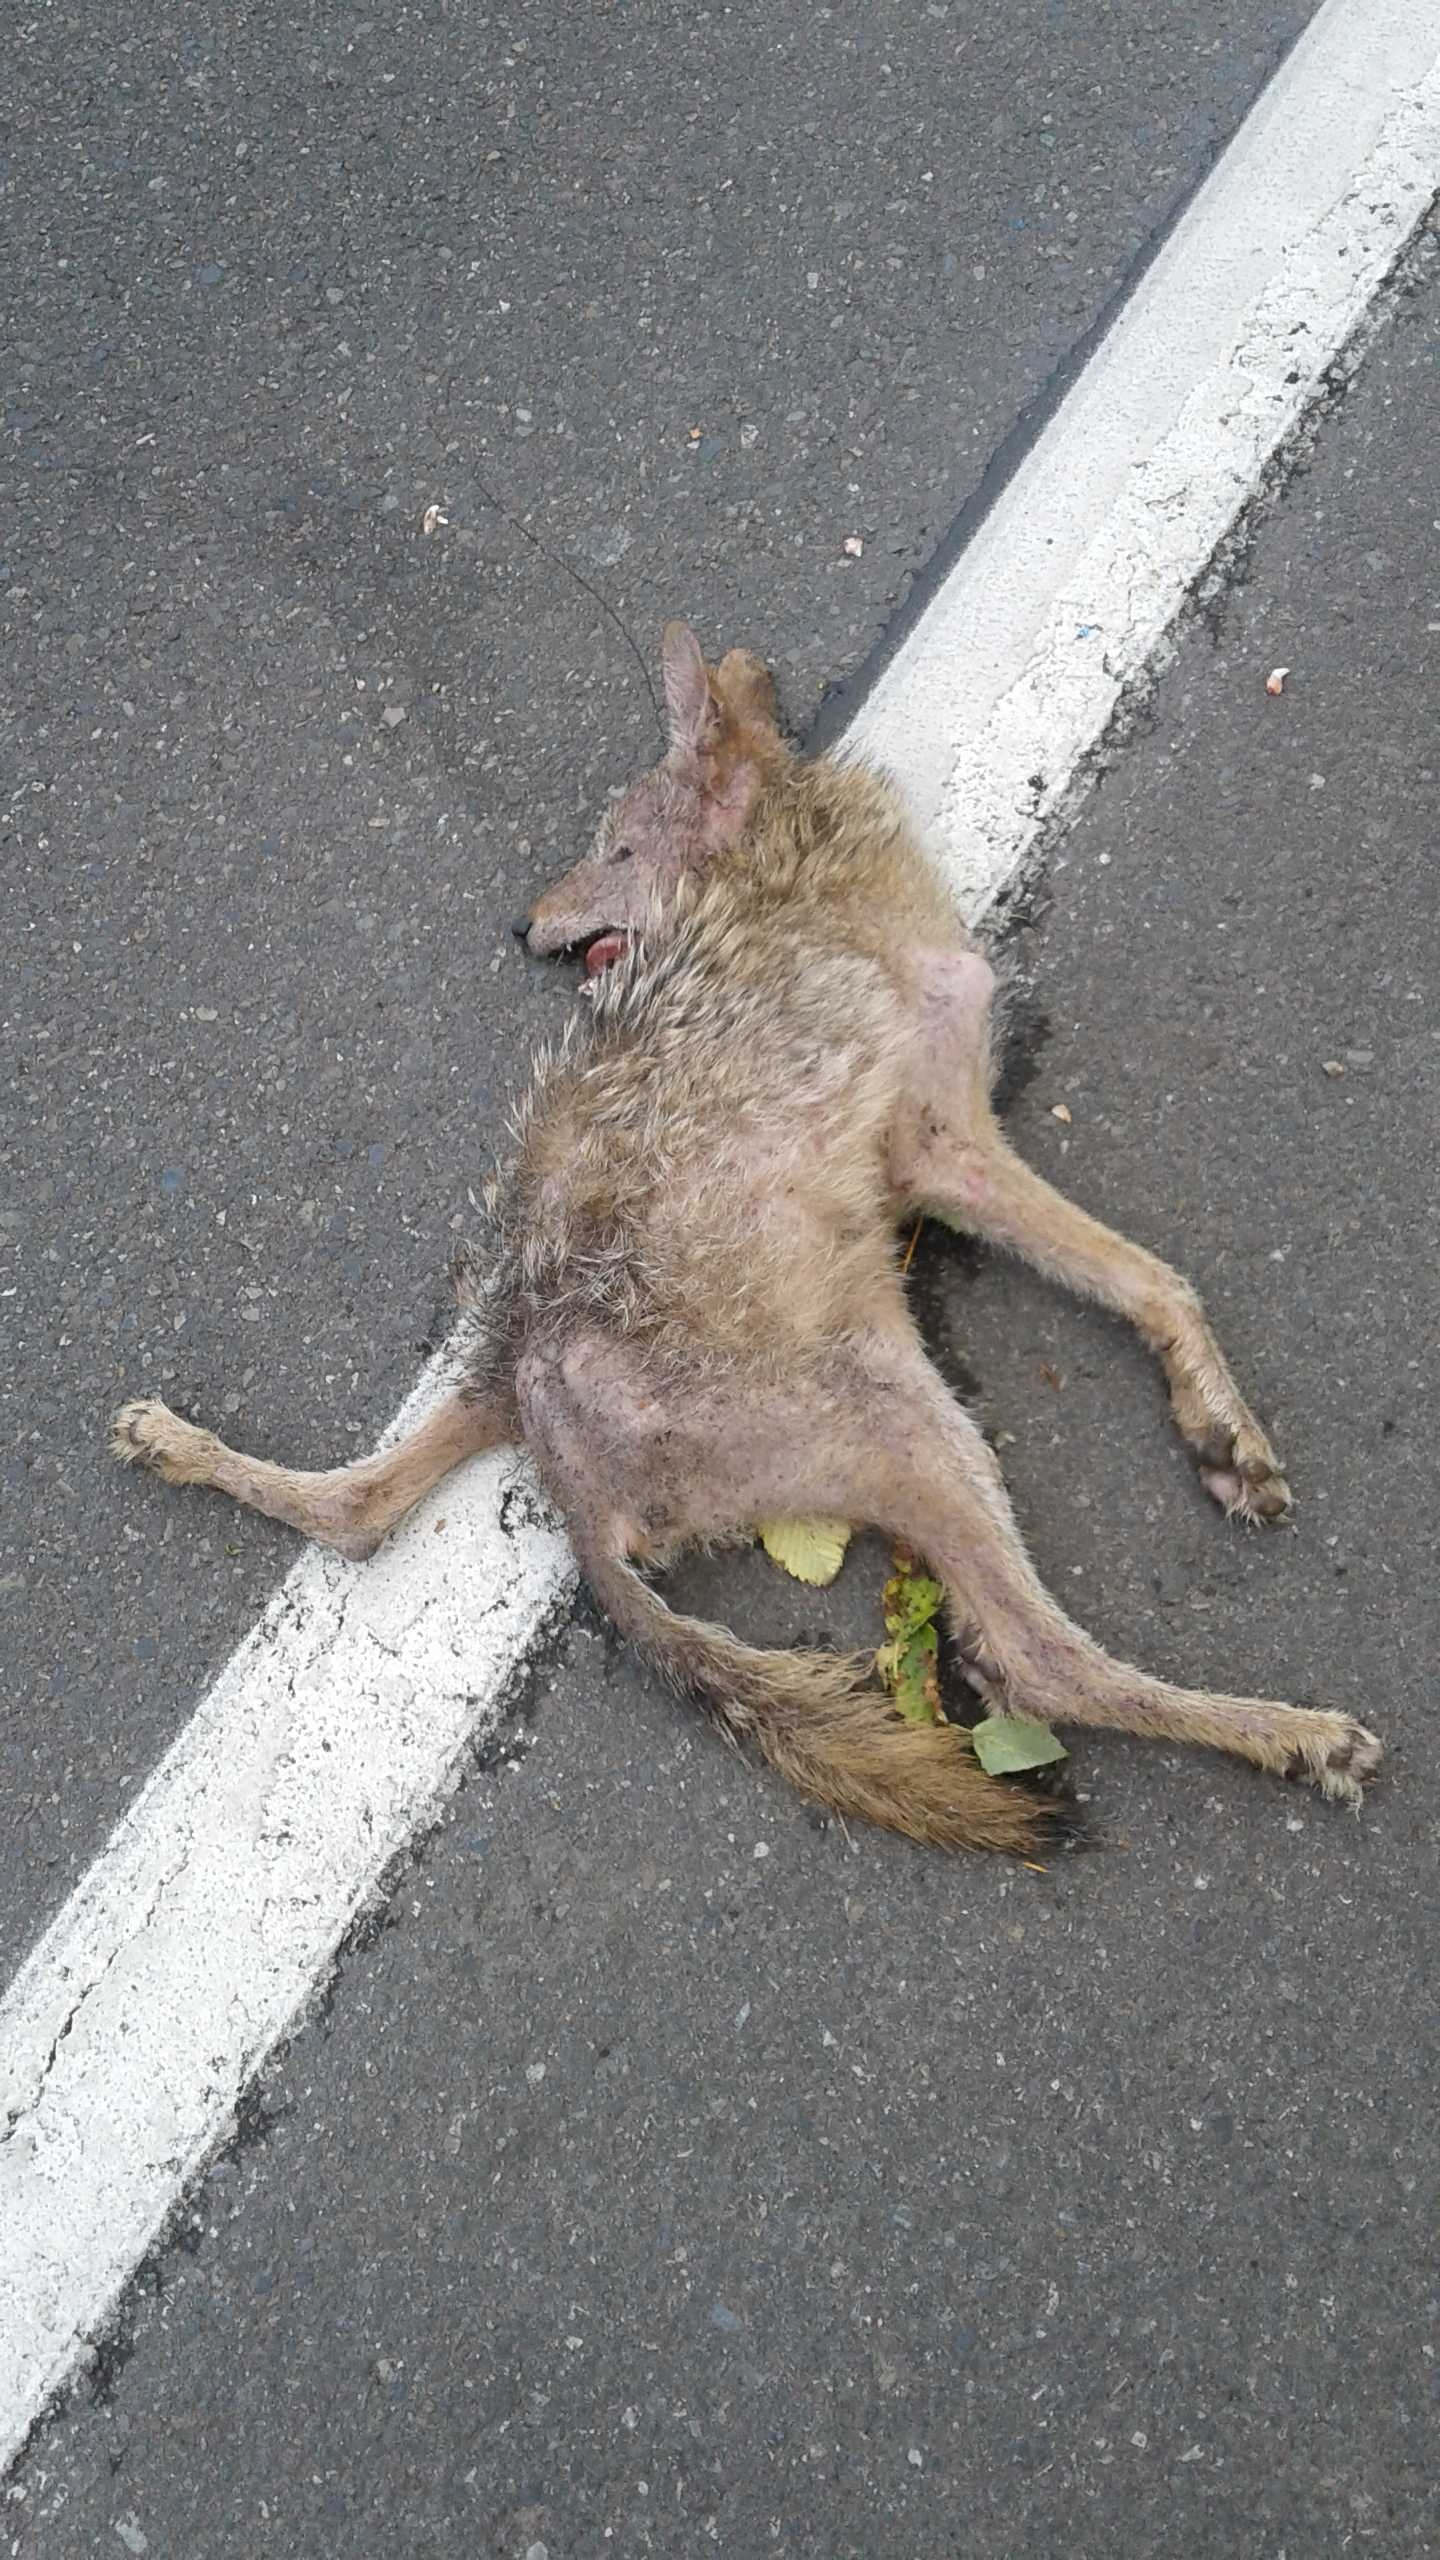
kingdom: Animalia
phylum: Chordata
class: Mammalia
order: Carnivora
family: Canidae
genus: Canis
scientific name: Canis latrans
